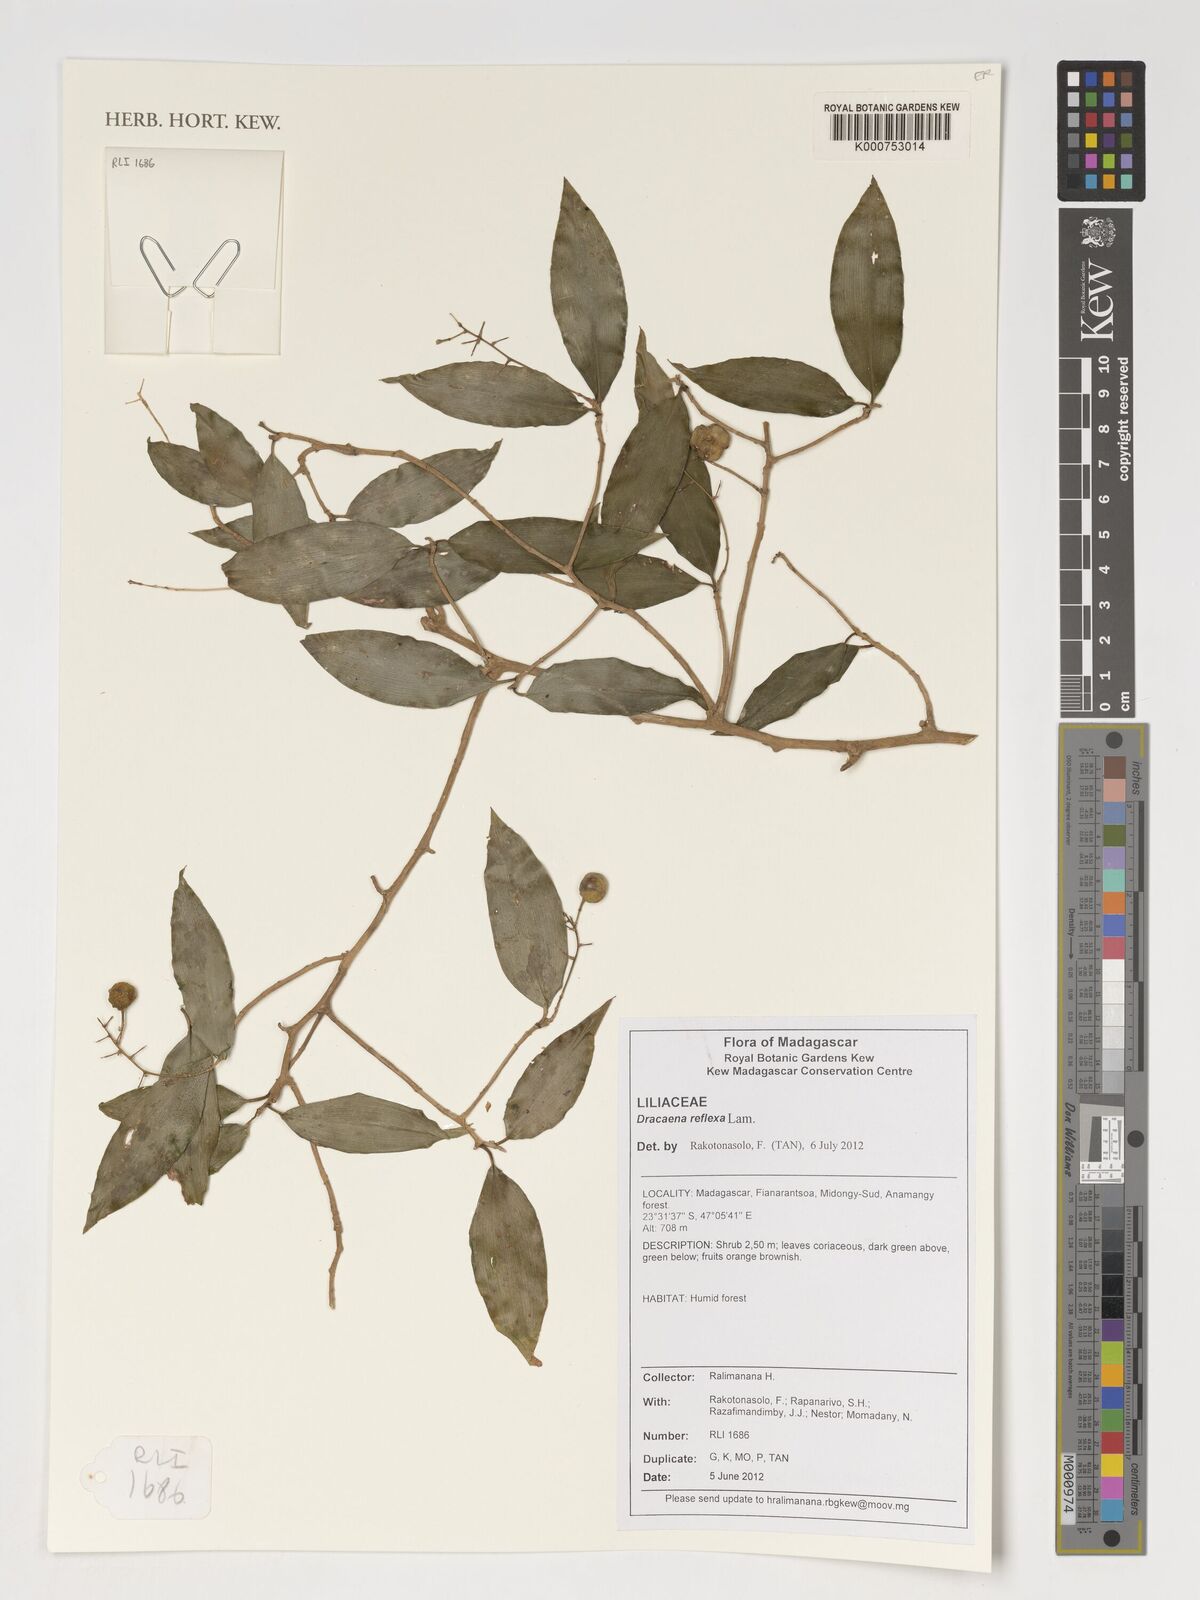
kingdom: Plantae
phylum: Tracheophyta
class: Liliopsida
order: Asparagales
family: Asparagaceae
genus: Dracaena
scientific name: Dracaena reflexa
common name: Song-of-india
